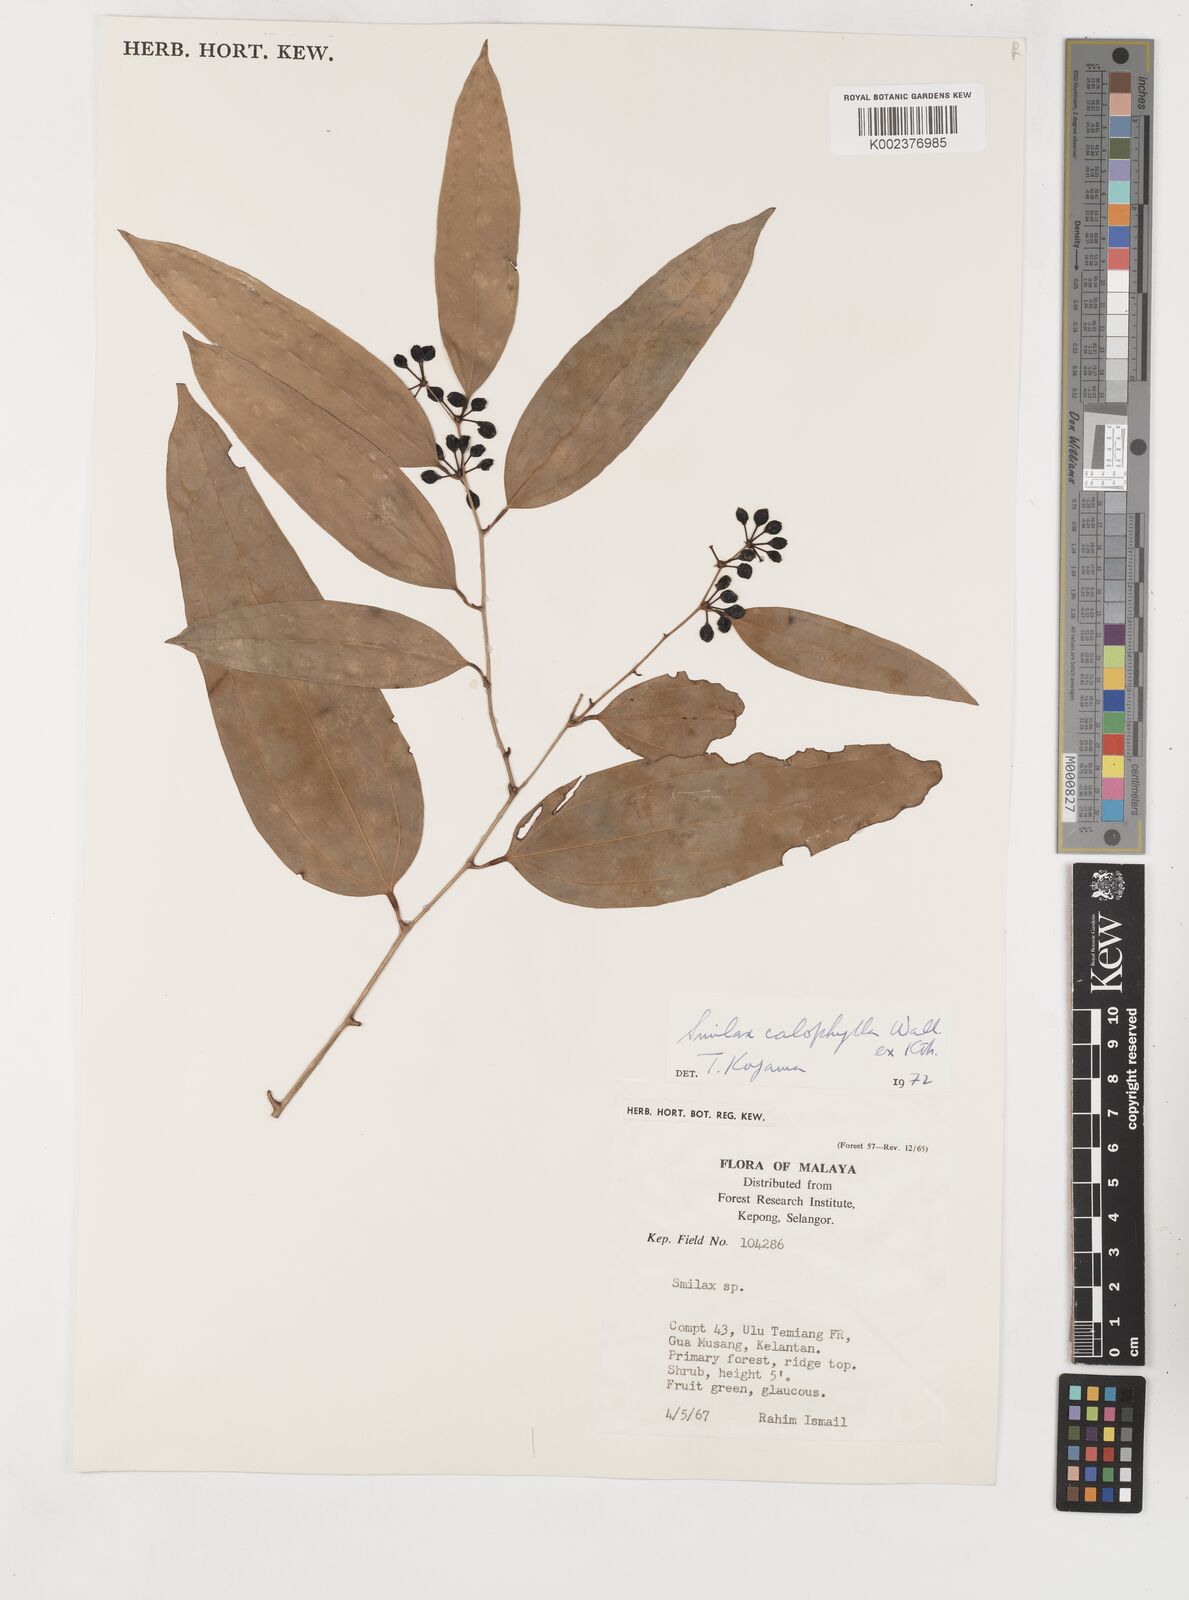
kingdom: Plantae
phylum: Tracheophyta
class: Liliopsida
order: Liliales
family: Smilacaceae
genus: Smilax
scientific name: Smilax calophylla
